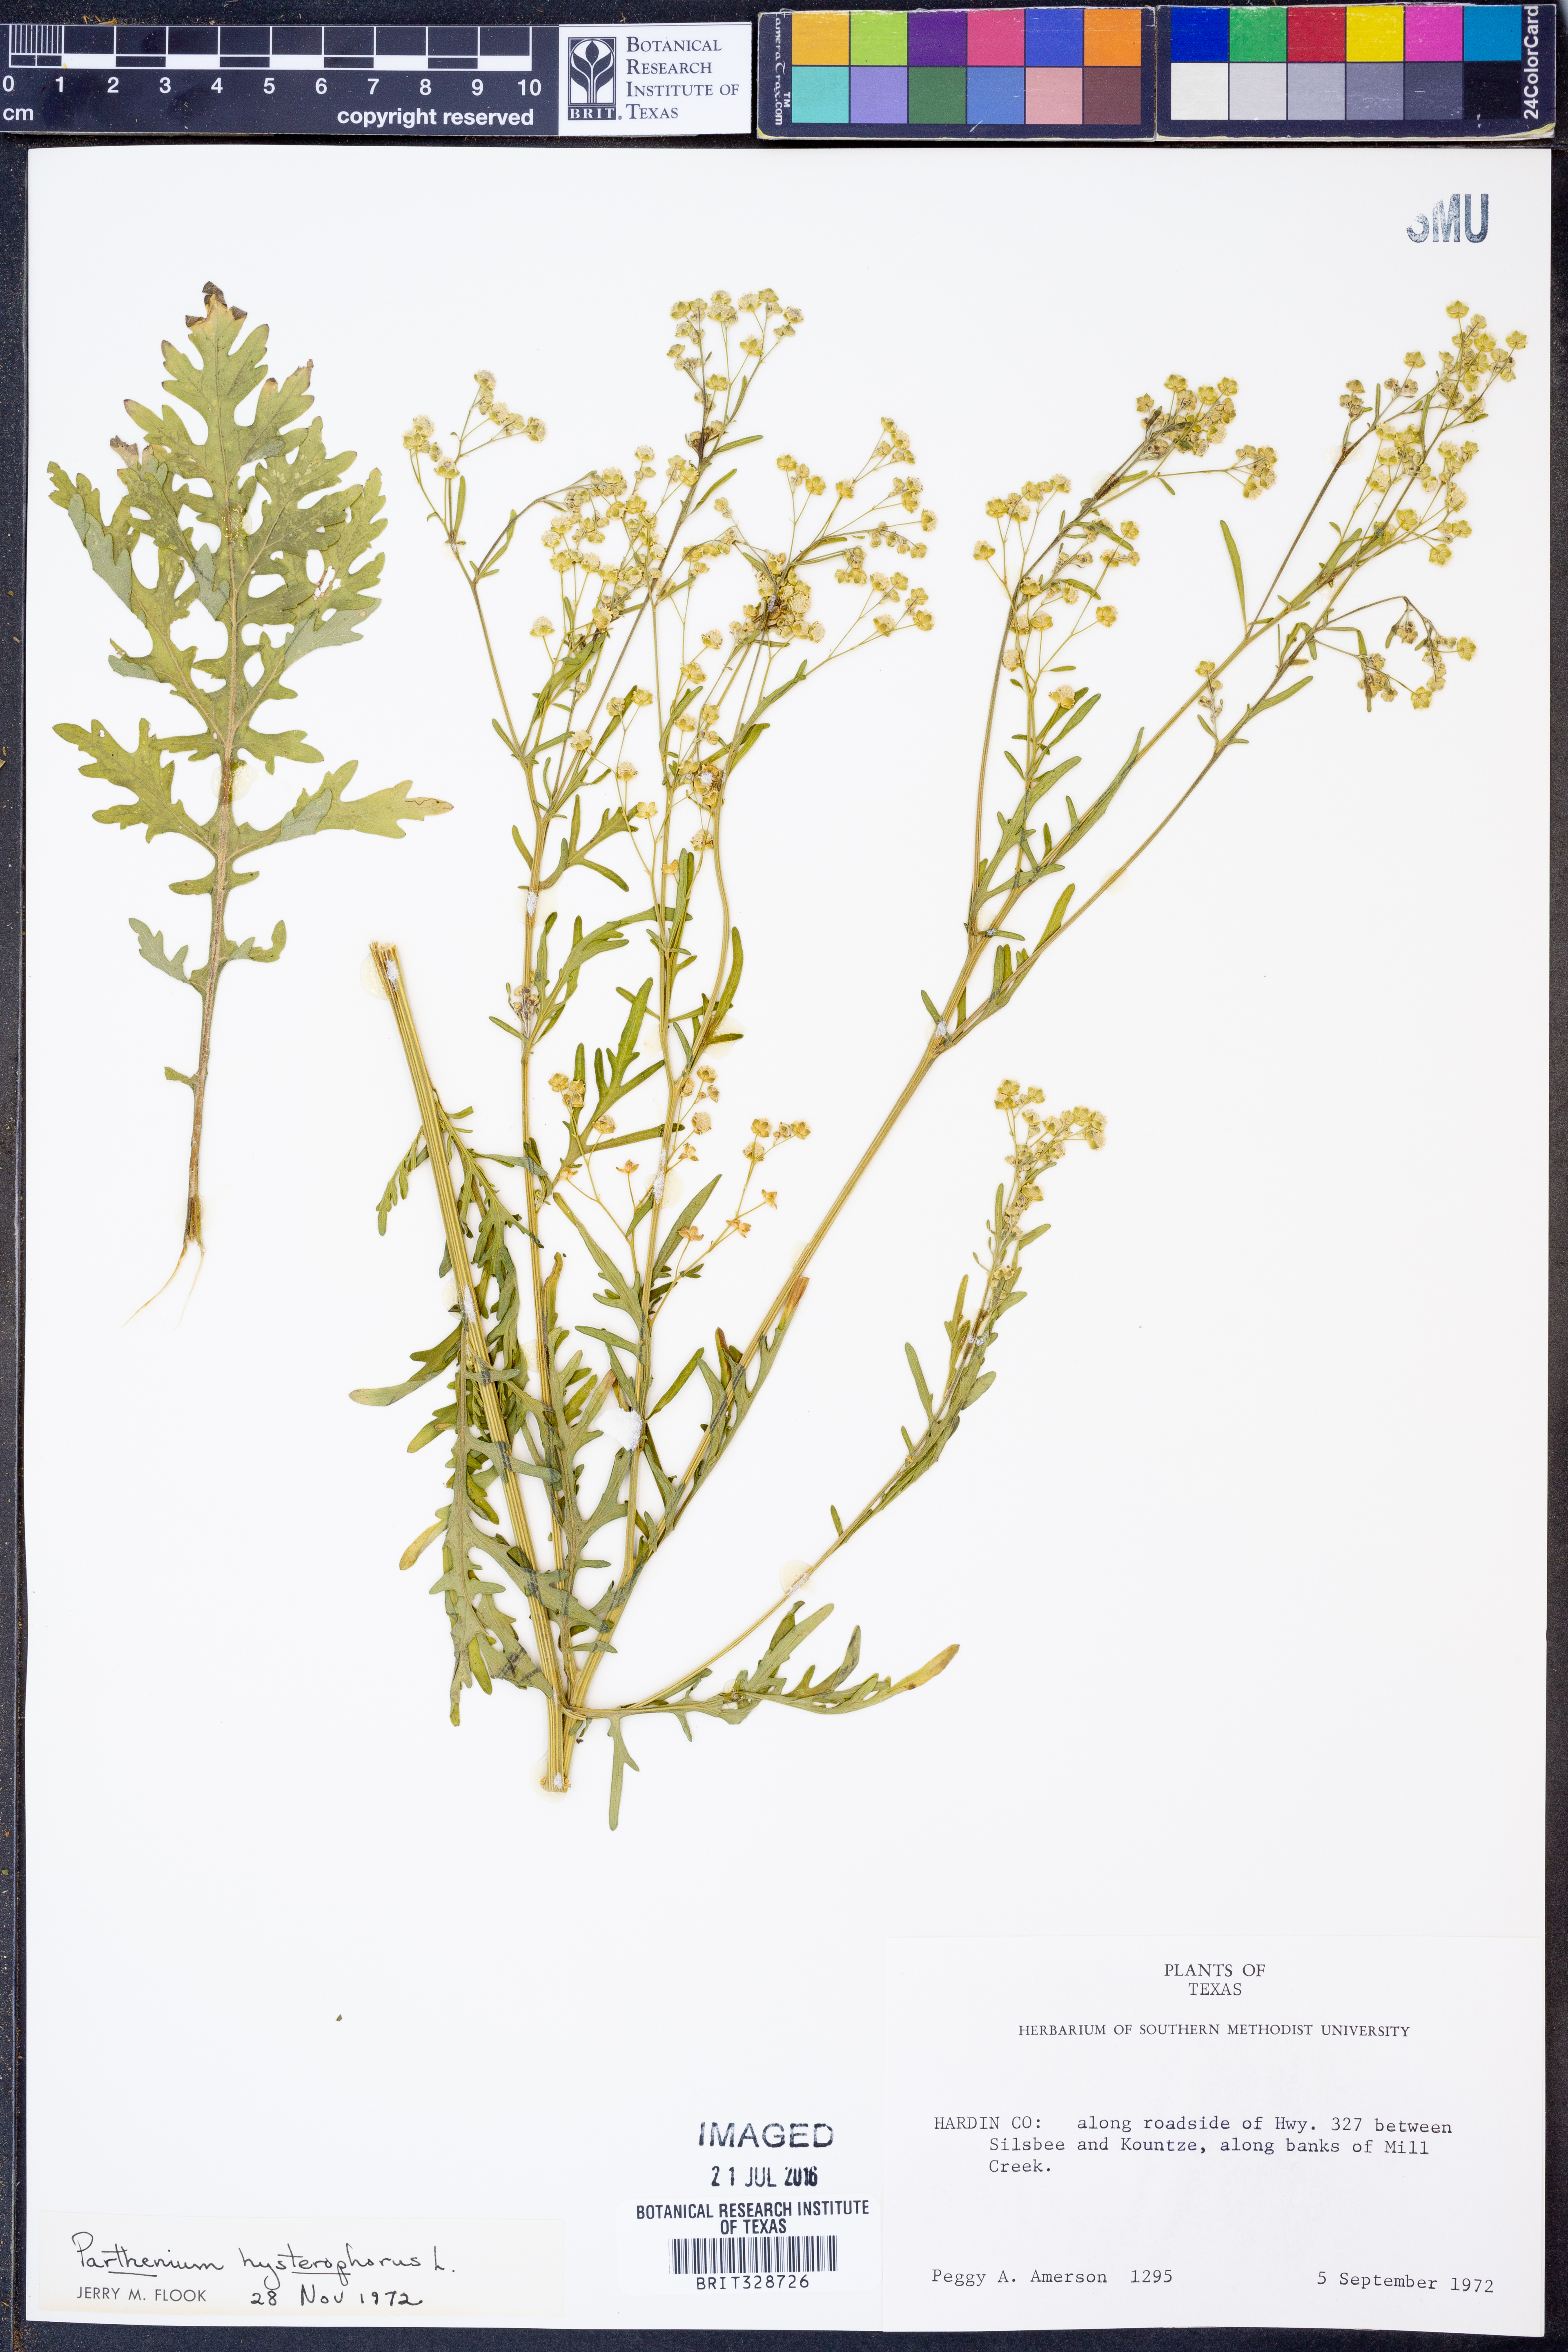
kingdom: Plantae
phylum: Tracheophyta
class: Magnoliopsida
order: Asterales
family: Asteraceae
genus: Parthenium
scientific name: Parthenium hysterophorus
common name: Santa maria feverfew
